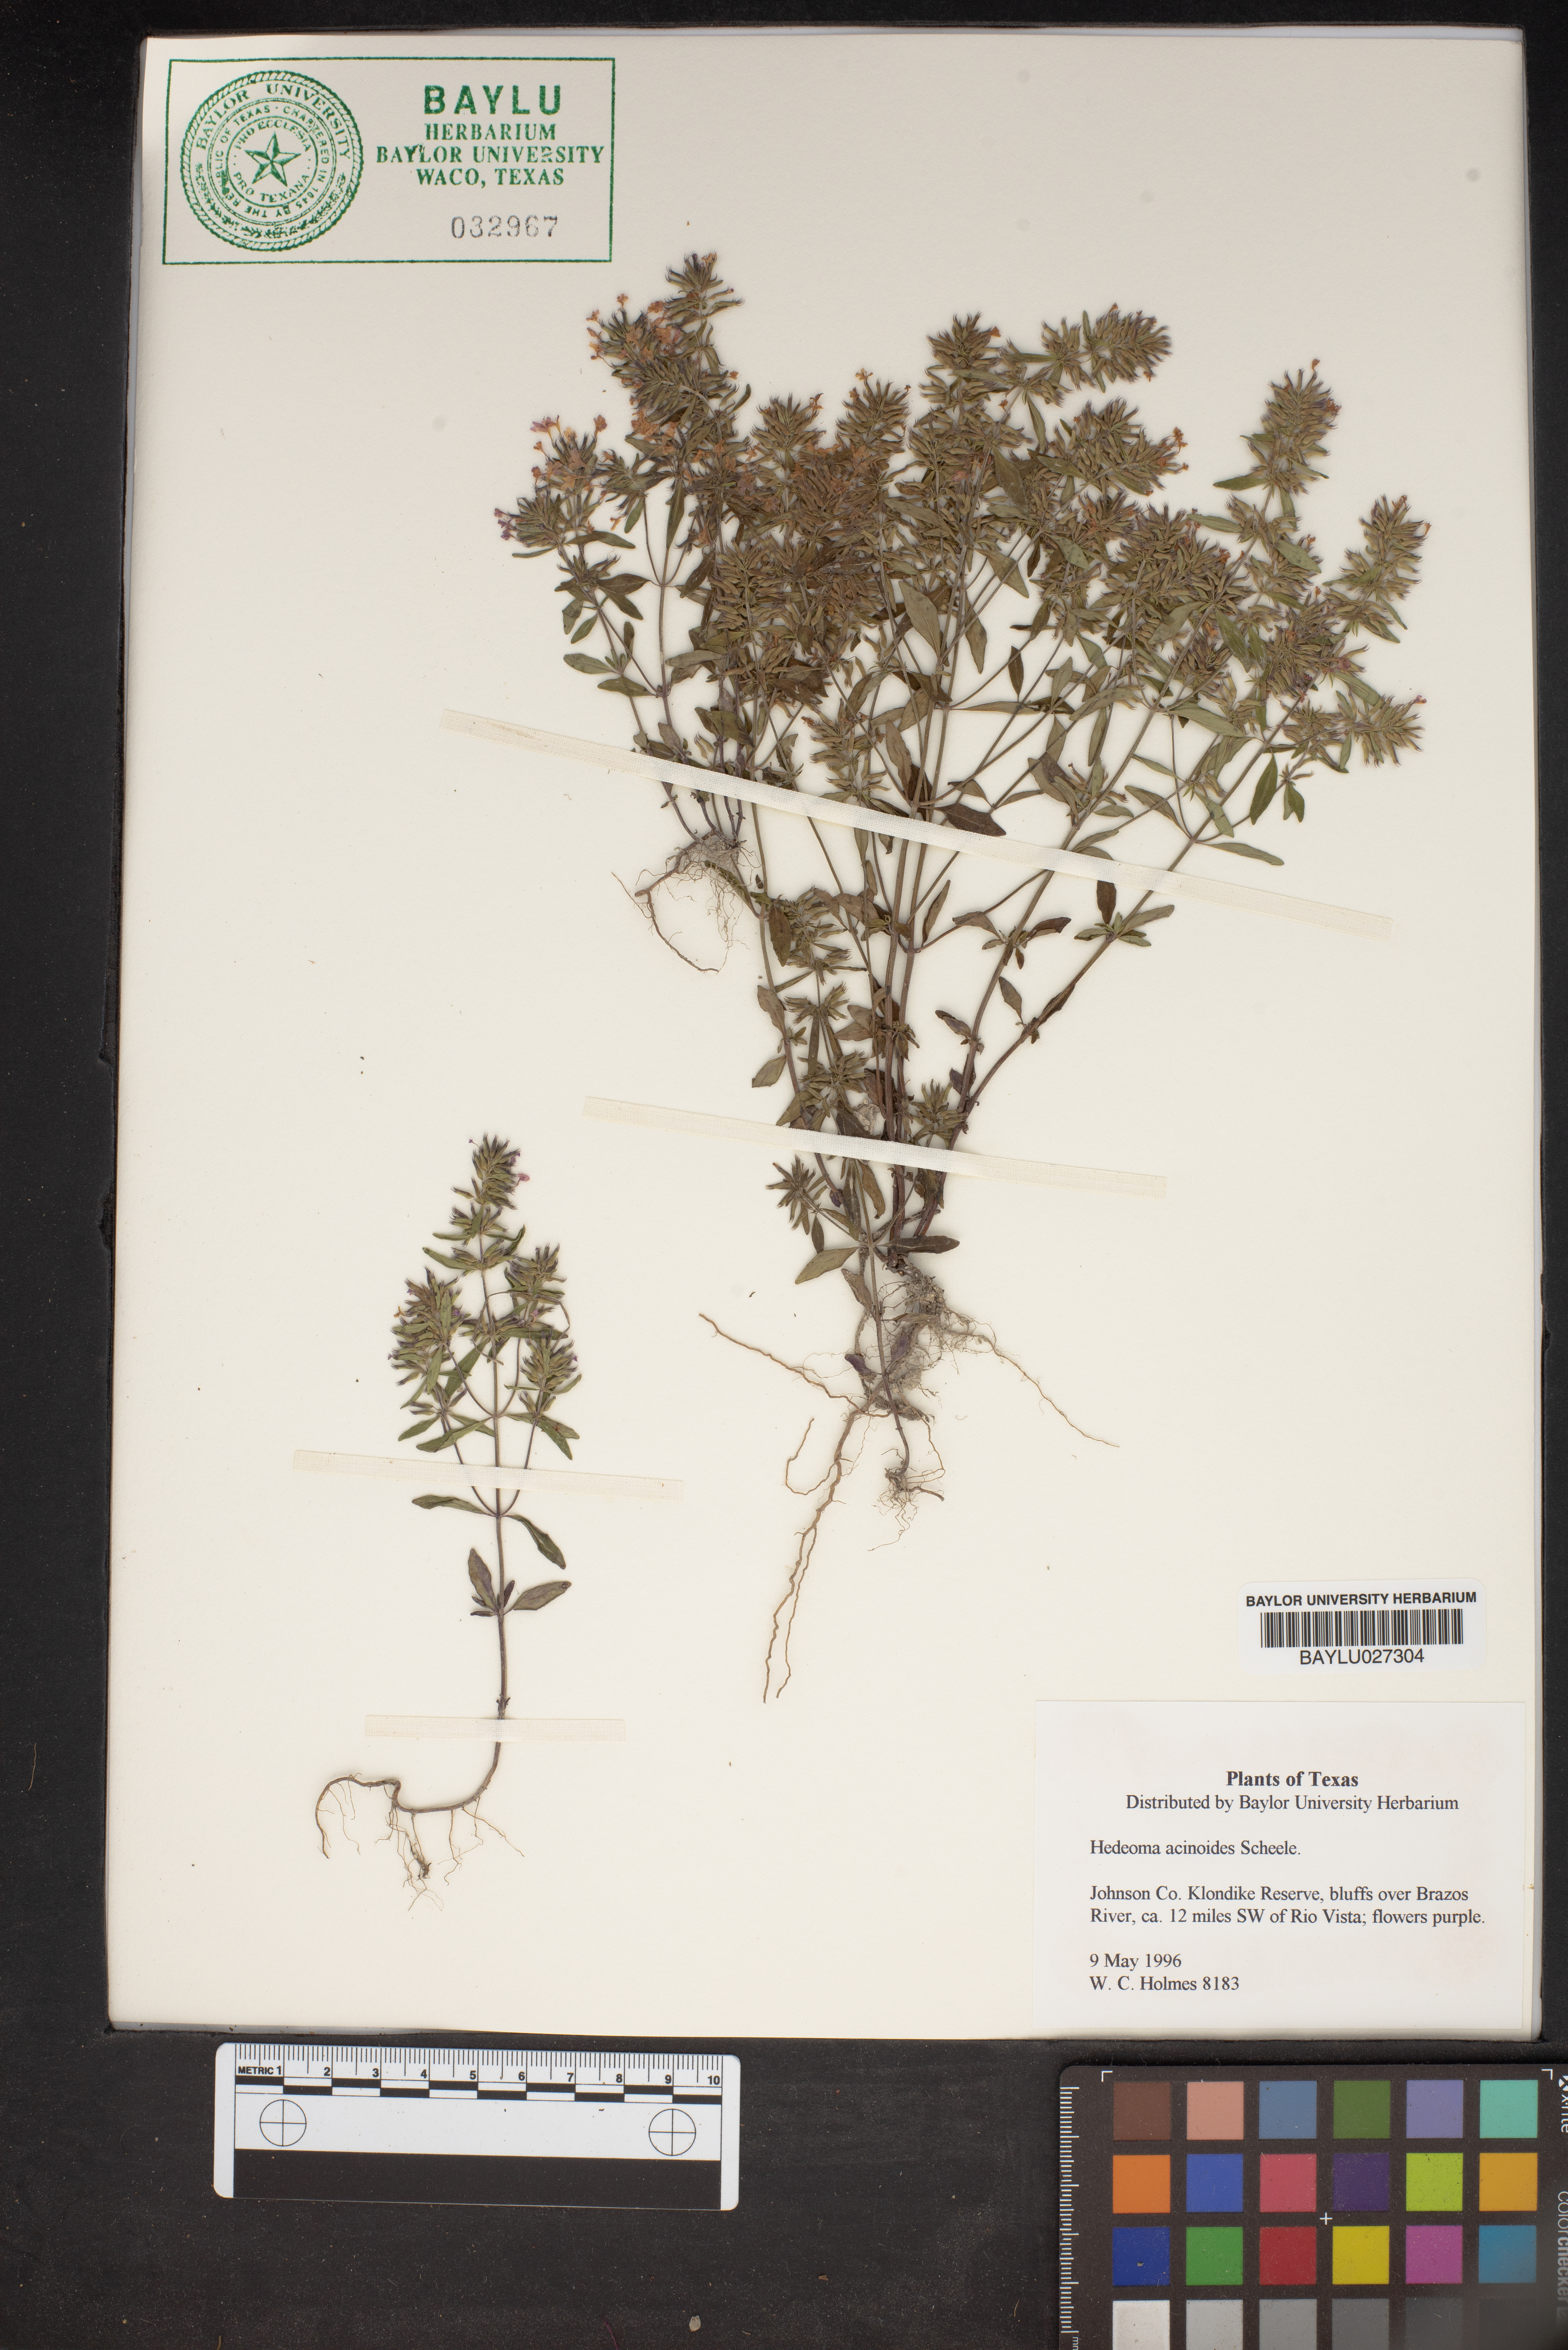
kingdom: Plantae
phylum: Tracheophyta
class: Magnoliopsida
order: Lamiales
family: Lamiaceae
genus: Hedeoma
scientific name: Hedeoma acinoides
